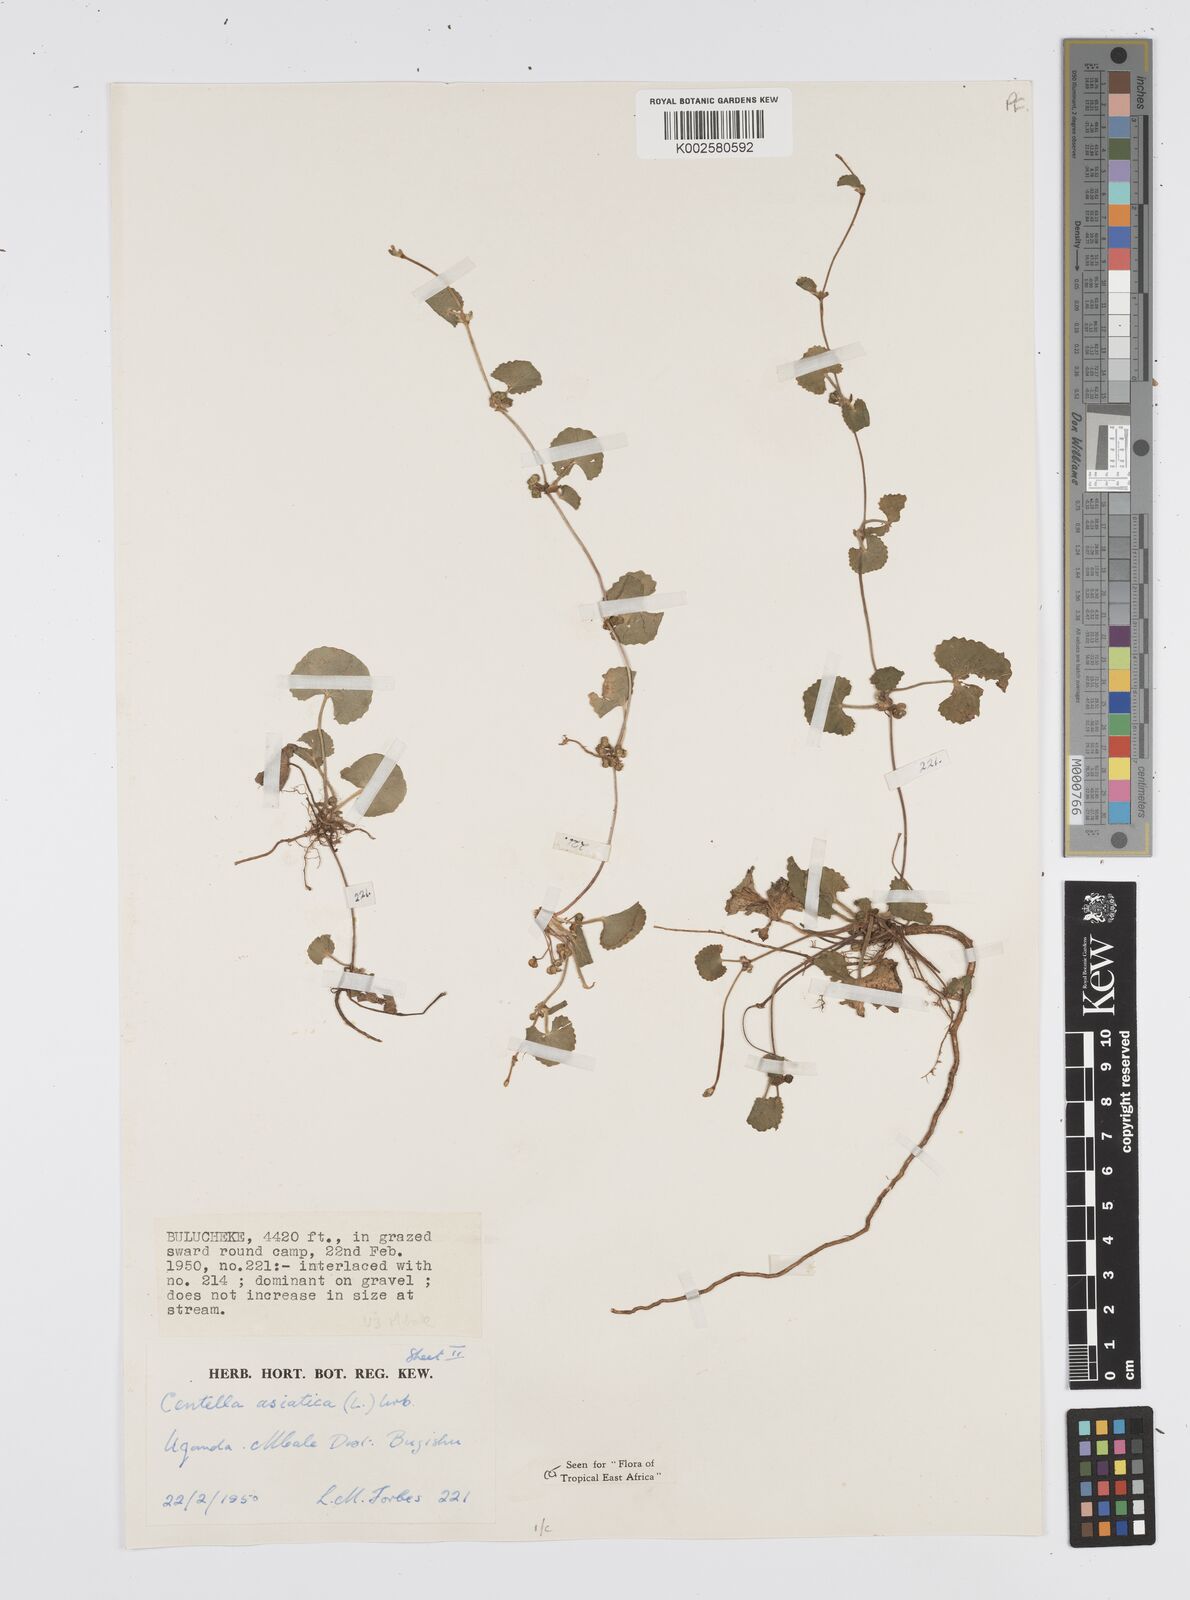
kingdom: Plantae
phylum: Tracheophyta
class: Magnoliopsida
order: Apiales
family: Apiaceae
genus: Centella
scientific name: Centella asiatica
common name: Spadeleaf
